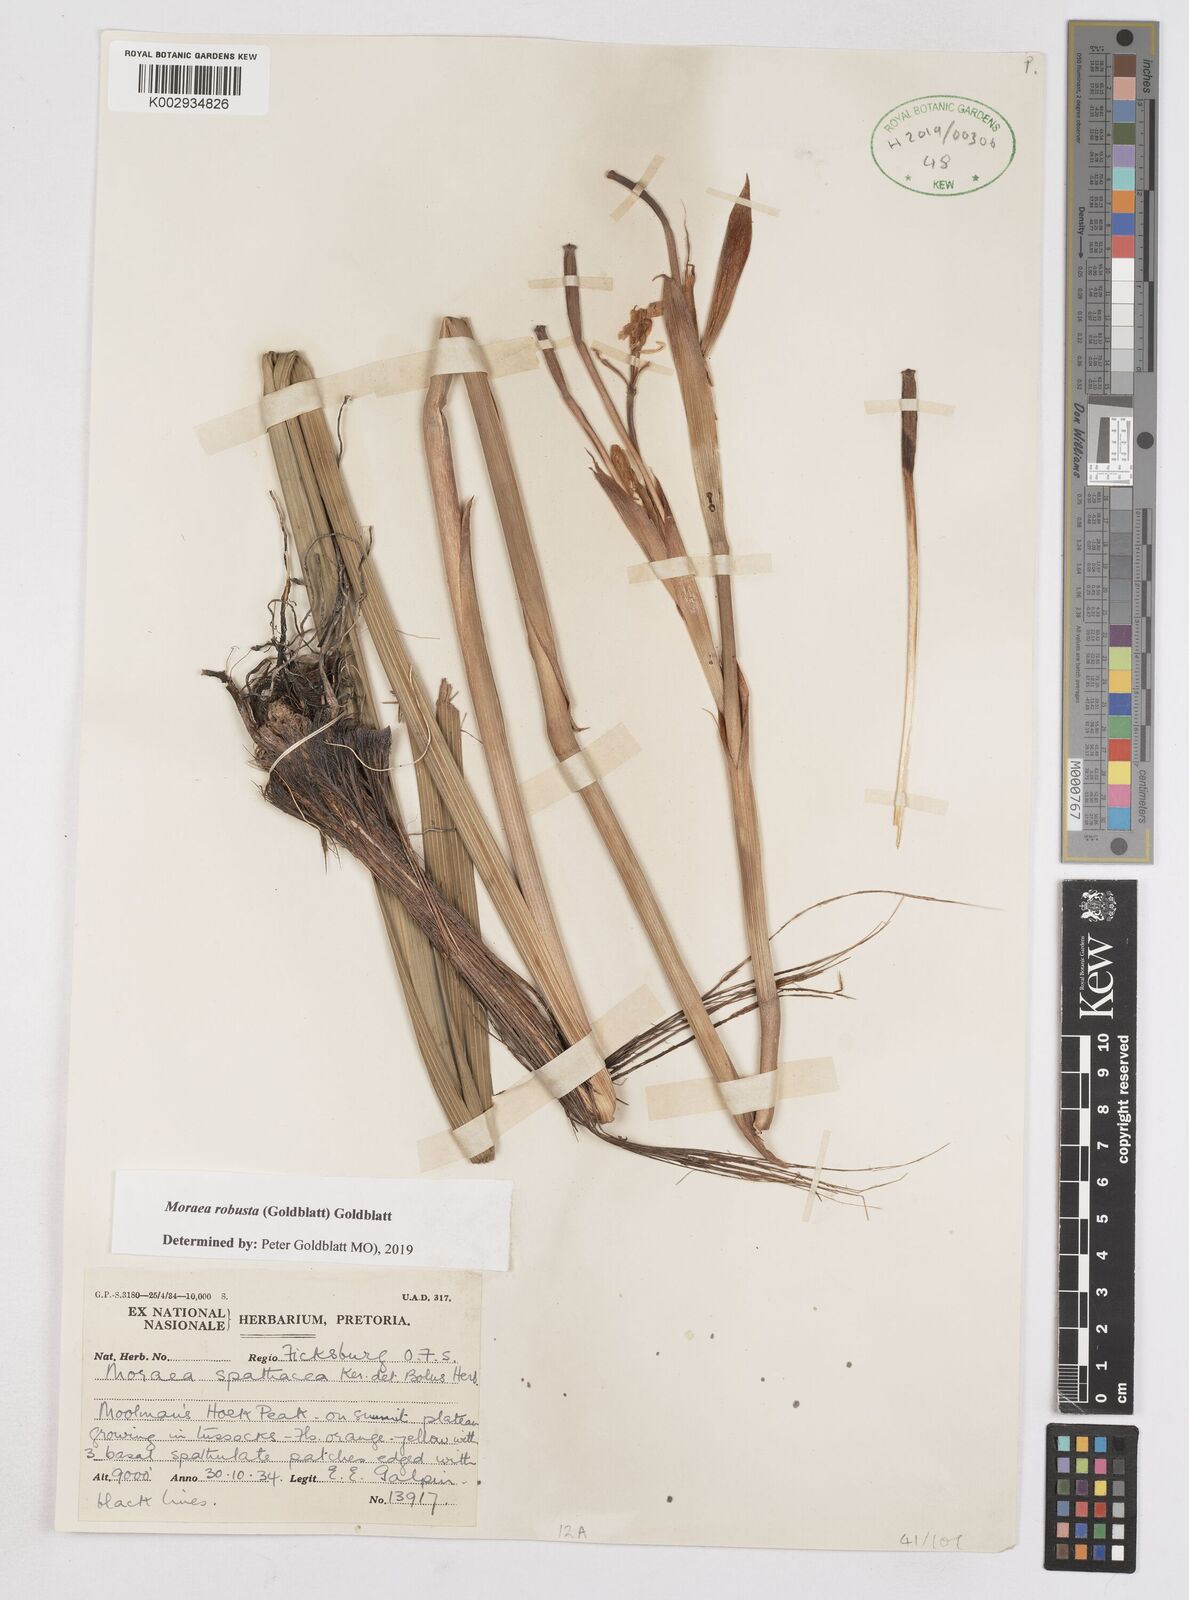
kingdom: Plantae
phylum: Tracheophyta
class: Liliopsida
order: Asparagales
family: Iridaceae
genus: Moraea
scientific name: Moraea robusta
